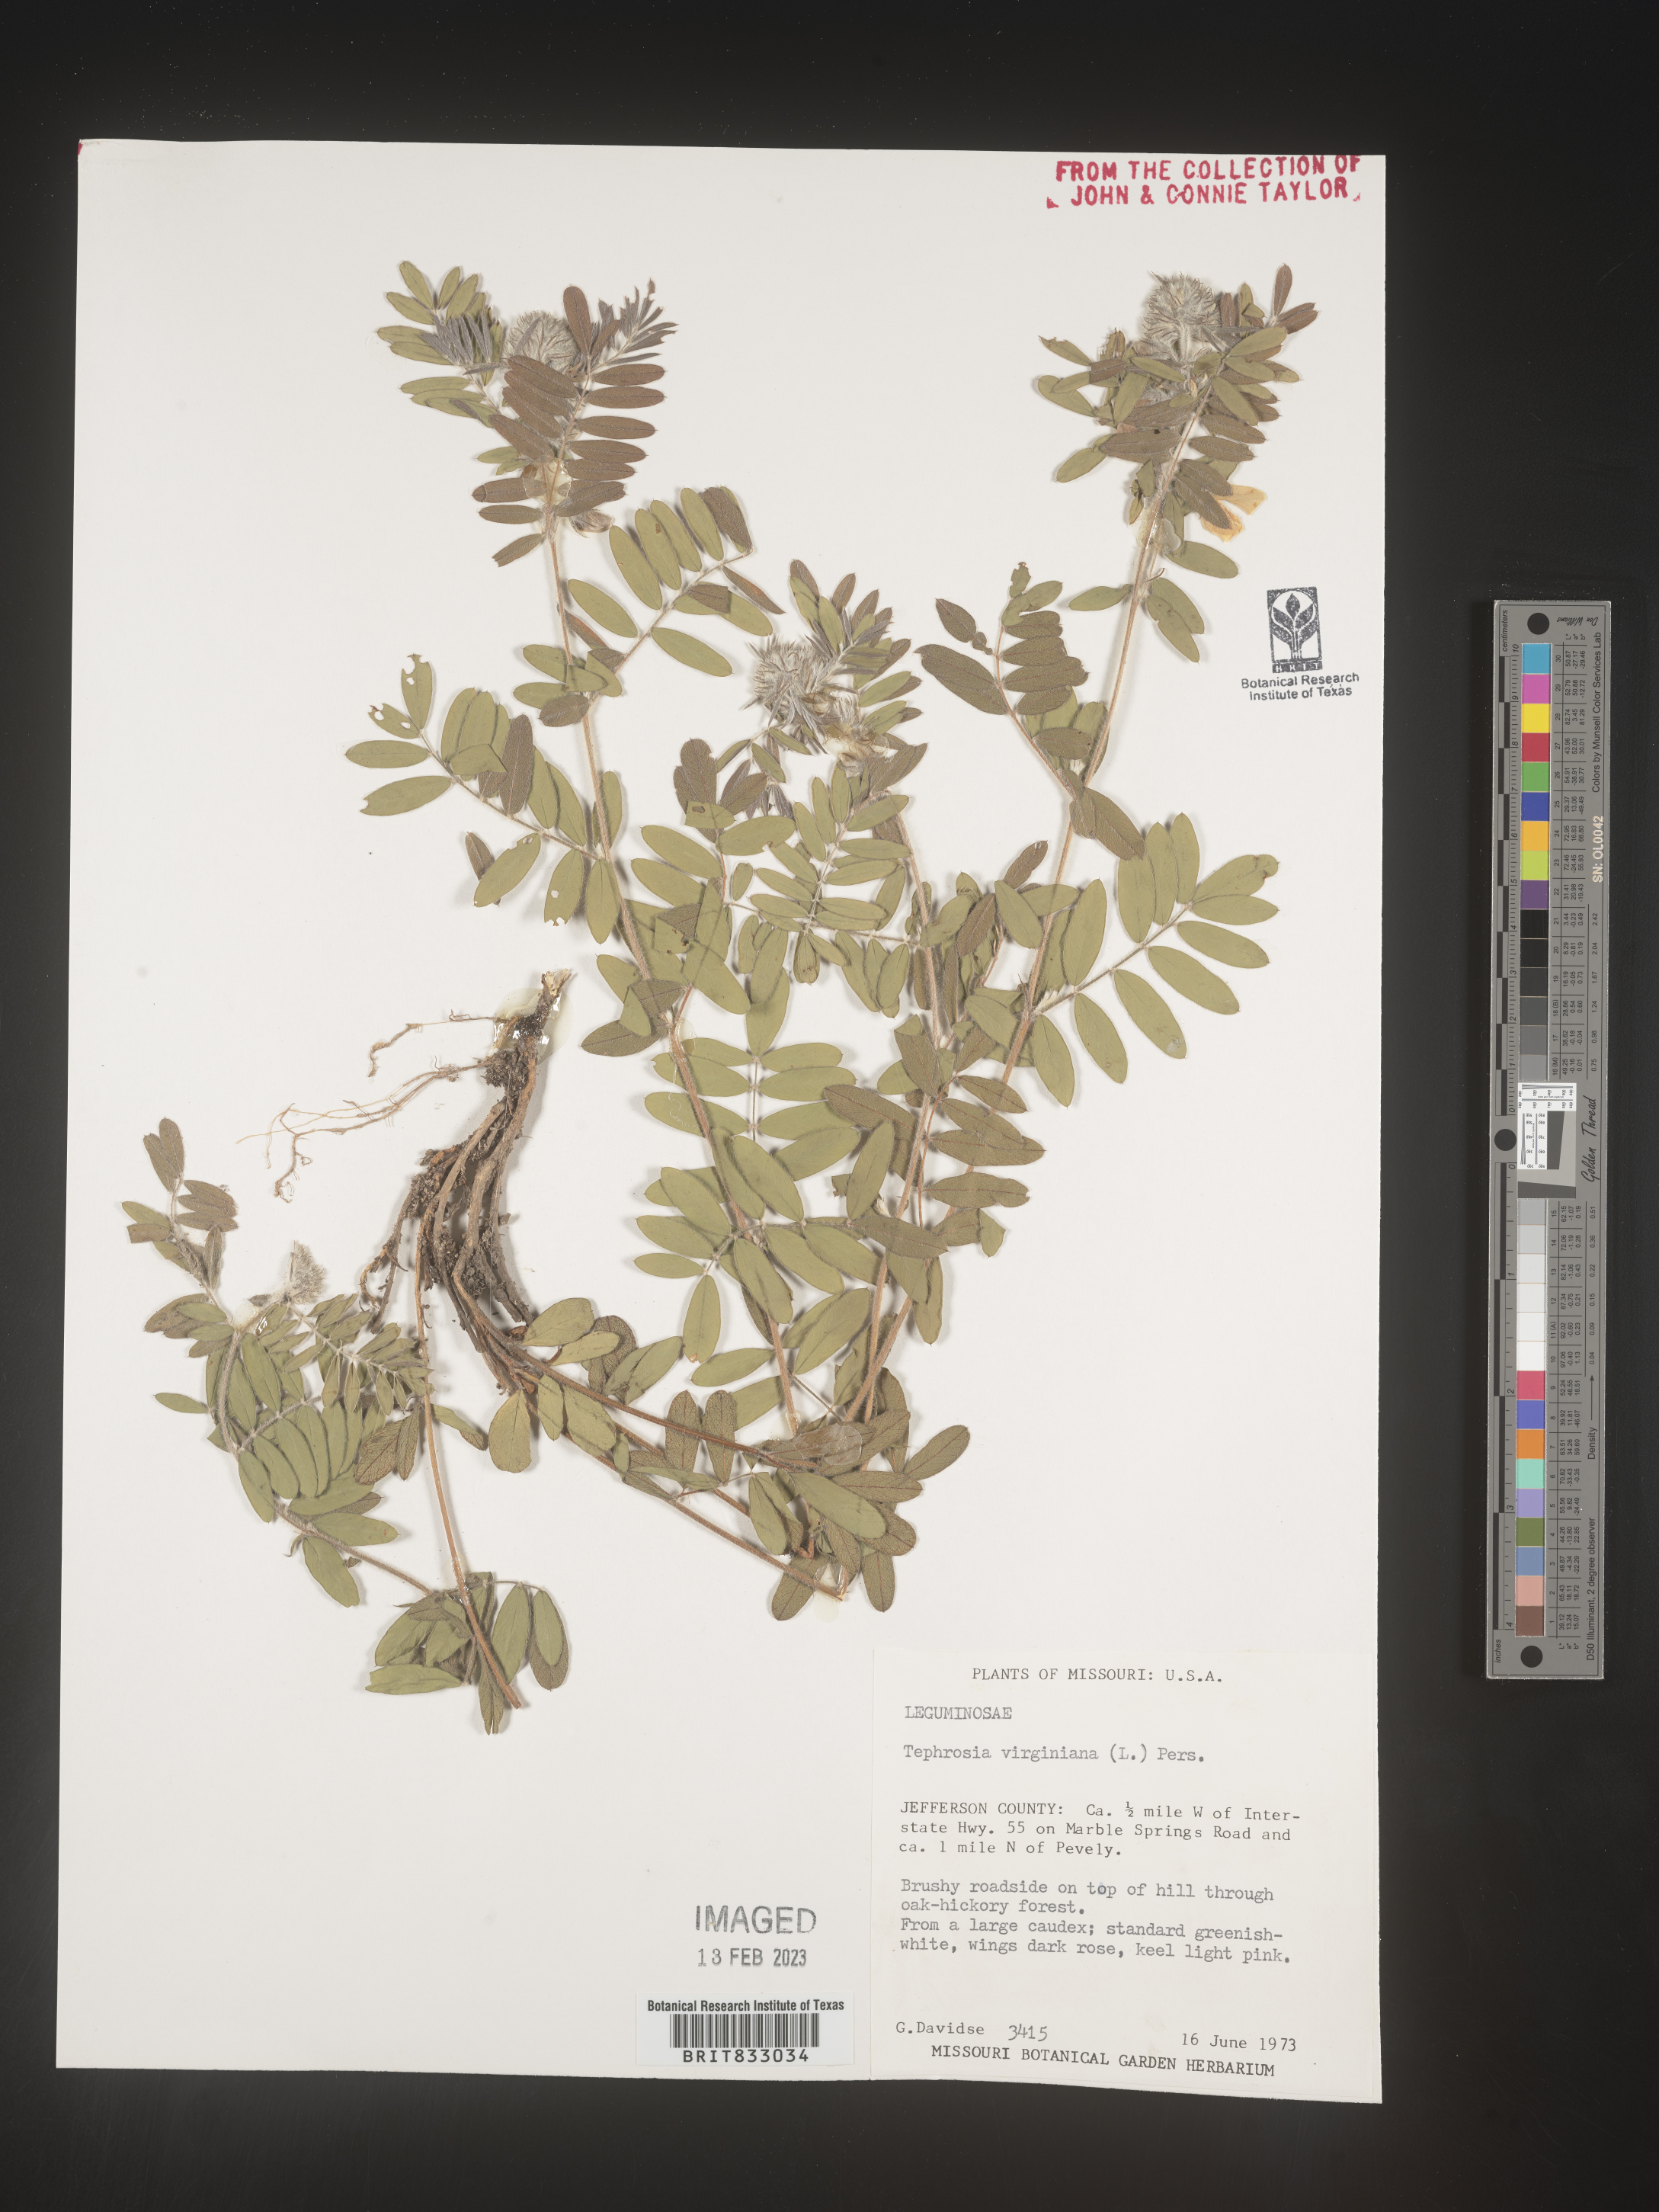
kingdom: Plantae
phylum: Tracheophyta
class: Magnoliopsida
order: Fabales
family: Fabaceae
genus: Tephrosia
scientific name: Tephrosia virginiana
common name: Rabbit-pea
